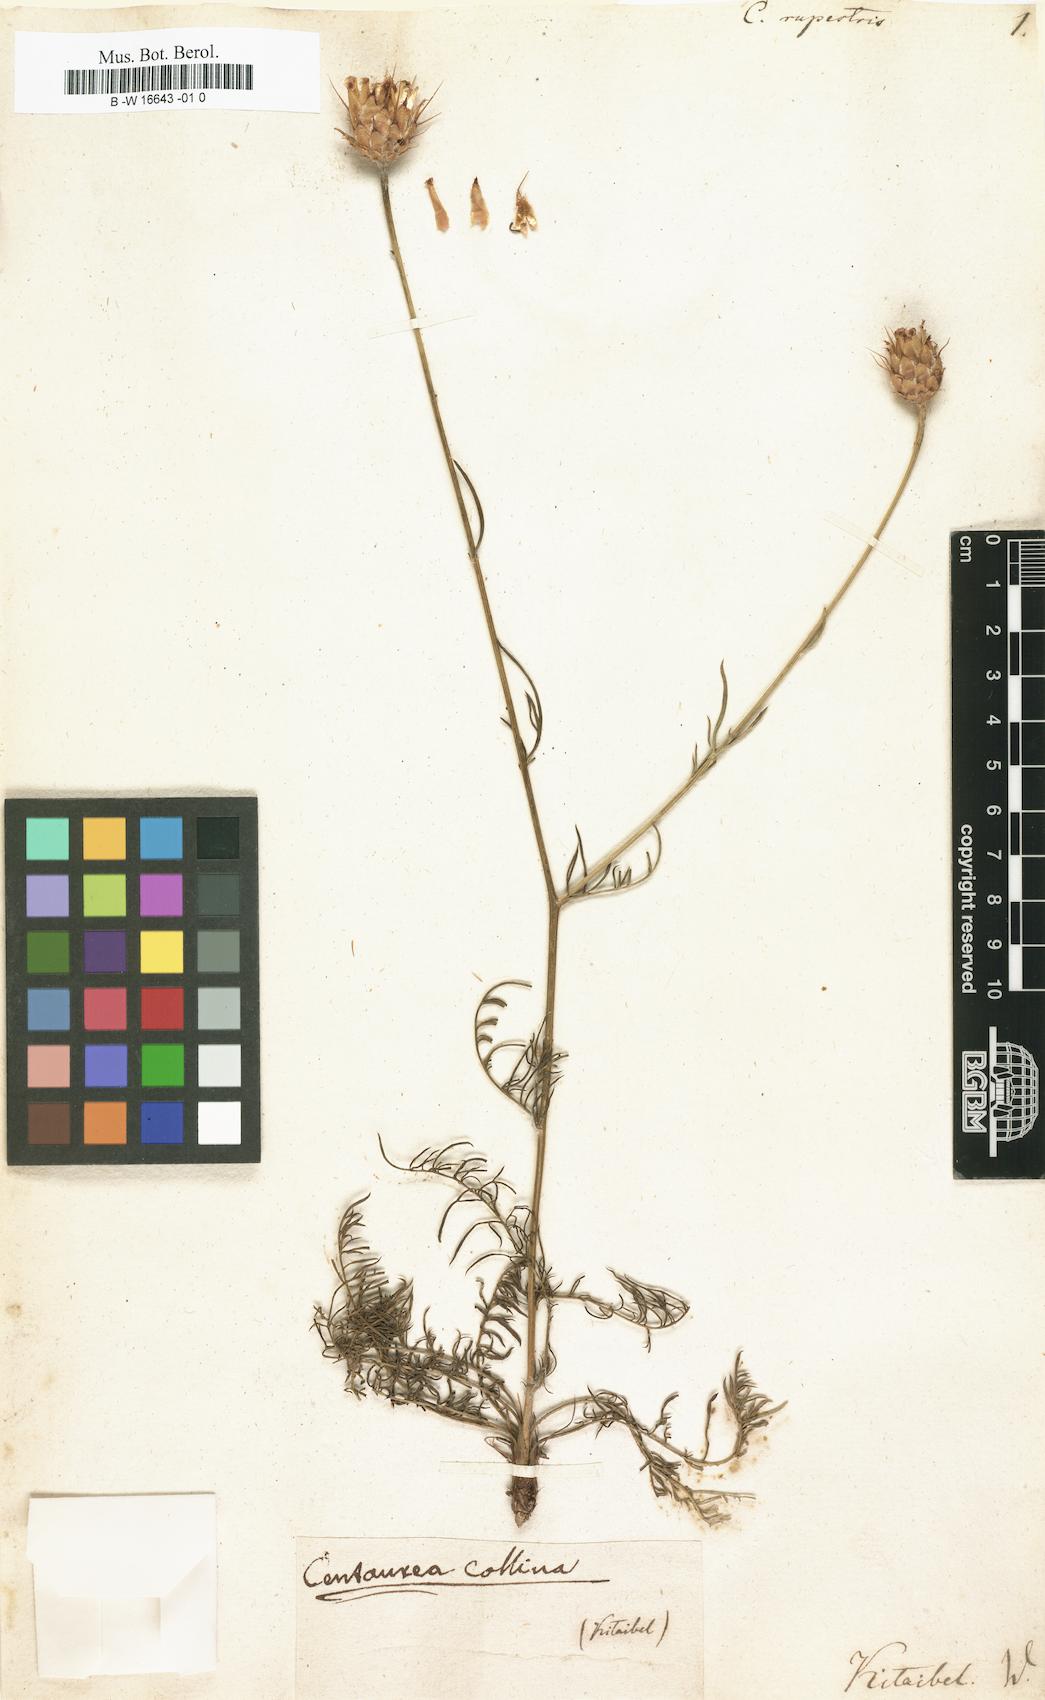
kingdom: Plantae
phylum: Tracheophyta
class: Magnoliopsida
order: Asterales
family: Asteraceae
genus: Centaurea
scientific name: Centaurea rupestris
